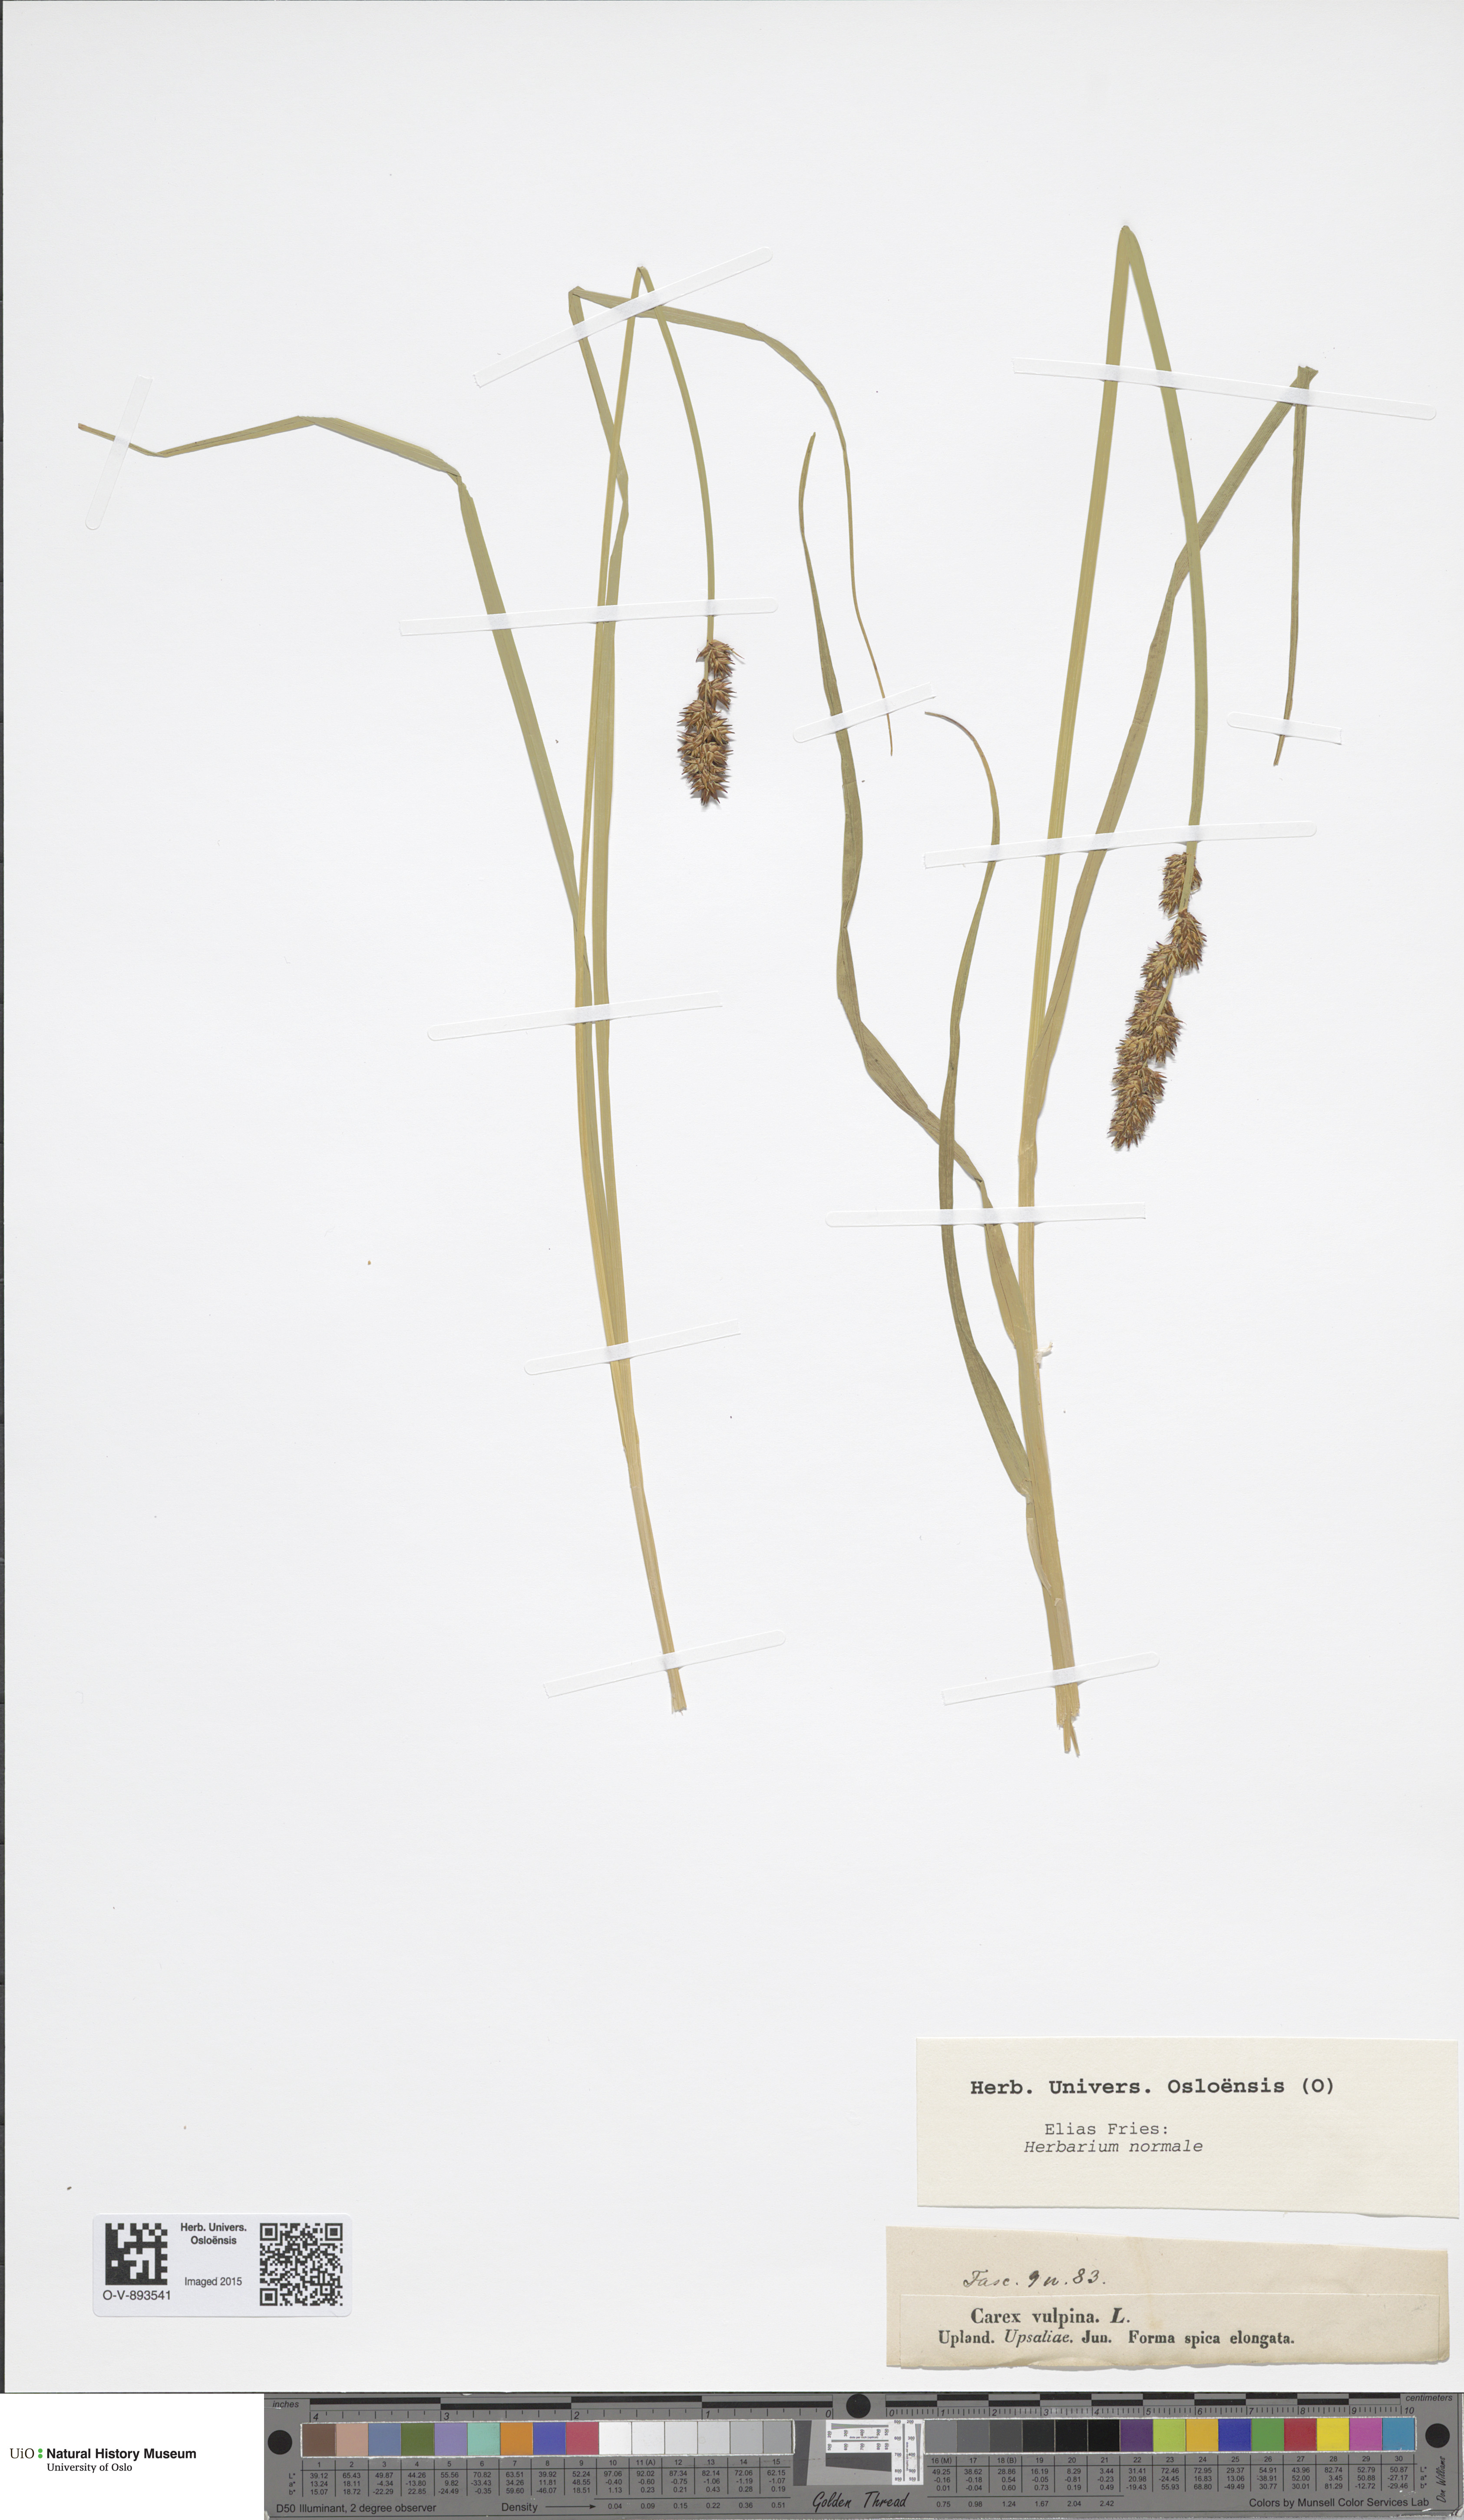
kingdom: Plantae
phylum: Tracheophyta
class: Liliopsida
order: Poales
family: Cyperaceae
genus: Carex
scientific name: Carex vulpina
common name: True fox-sedge
